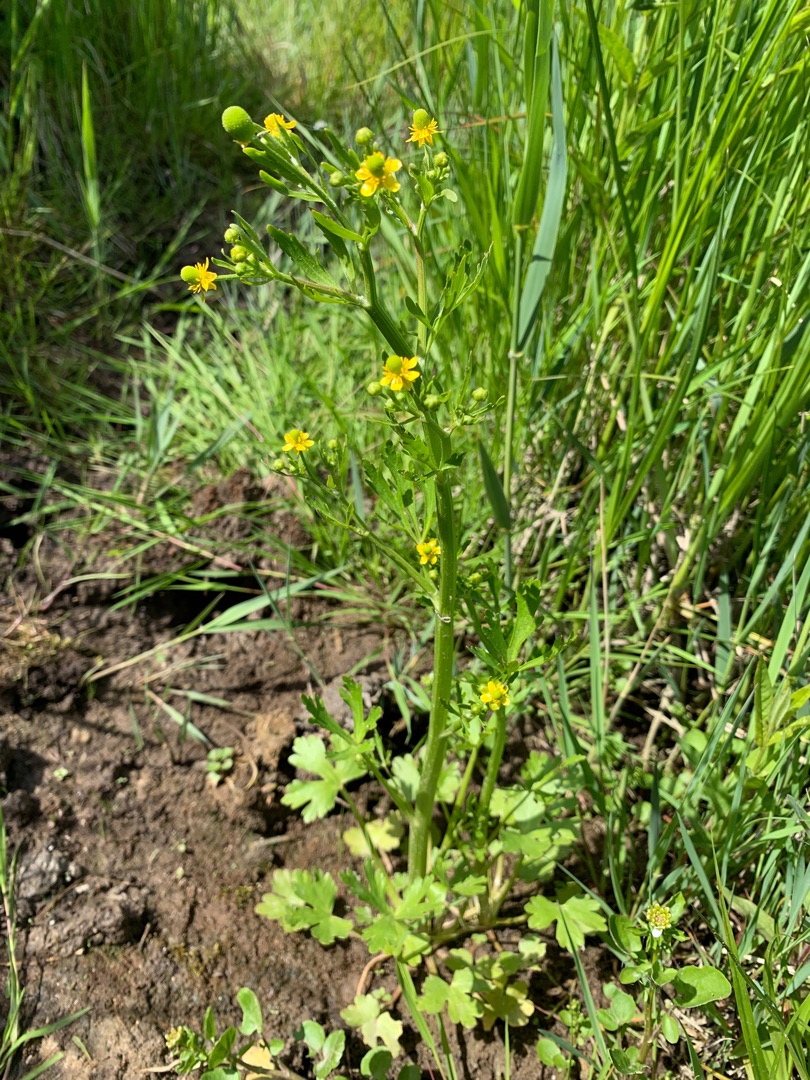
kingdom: Plantae
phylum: Tracheophyta
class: Magnoliopsida
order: Ranunculales
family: Ranunculaceae
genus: Ranunculus
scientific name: Ranunculus sceleratus
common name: Tigger-ranunkel
